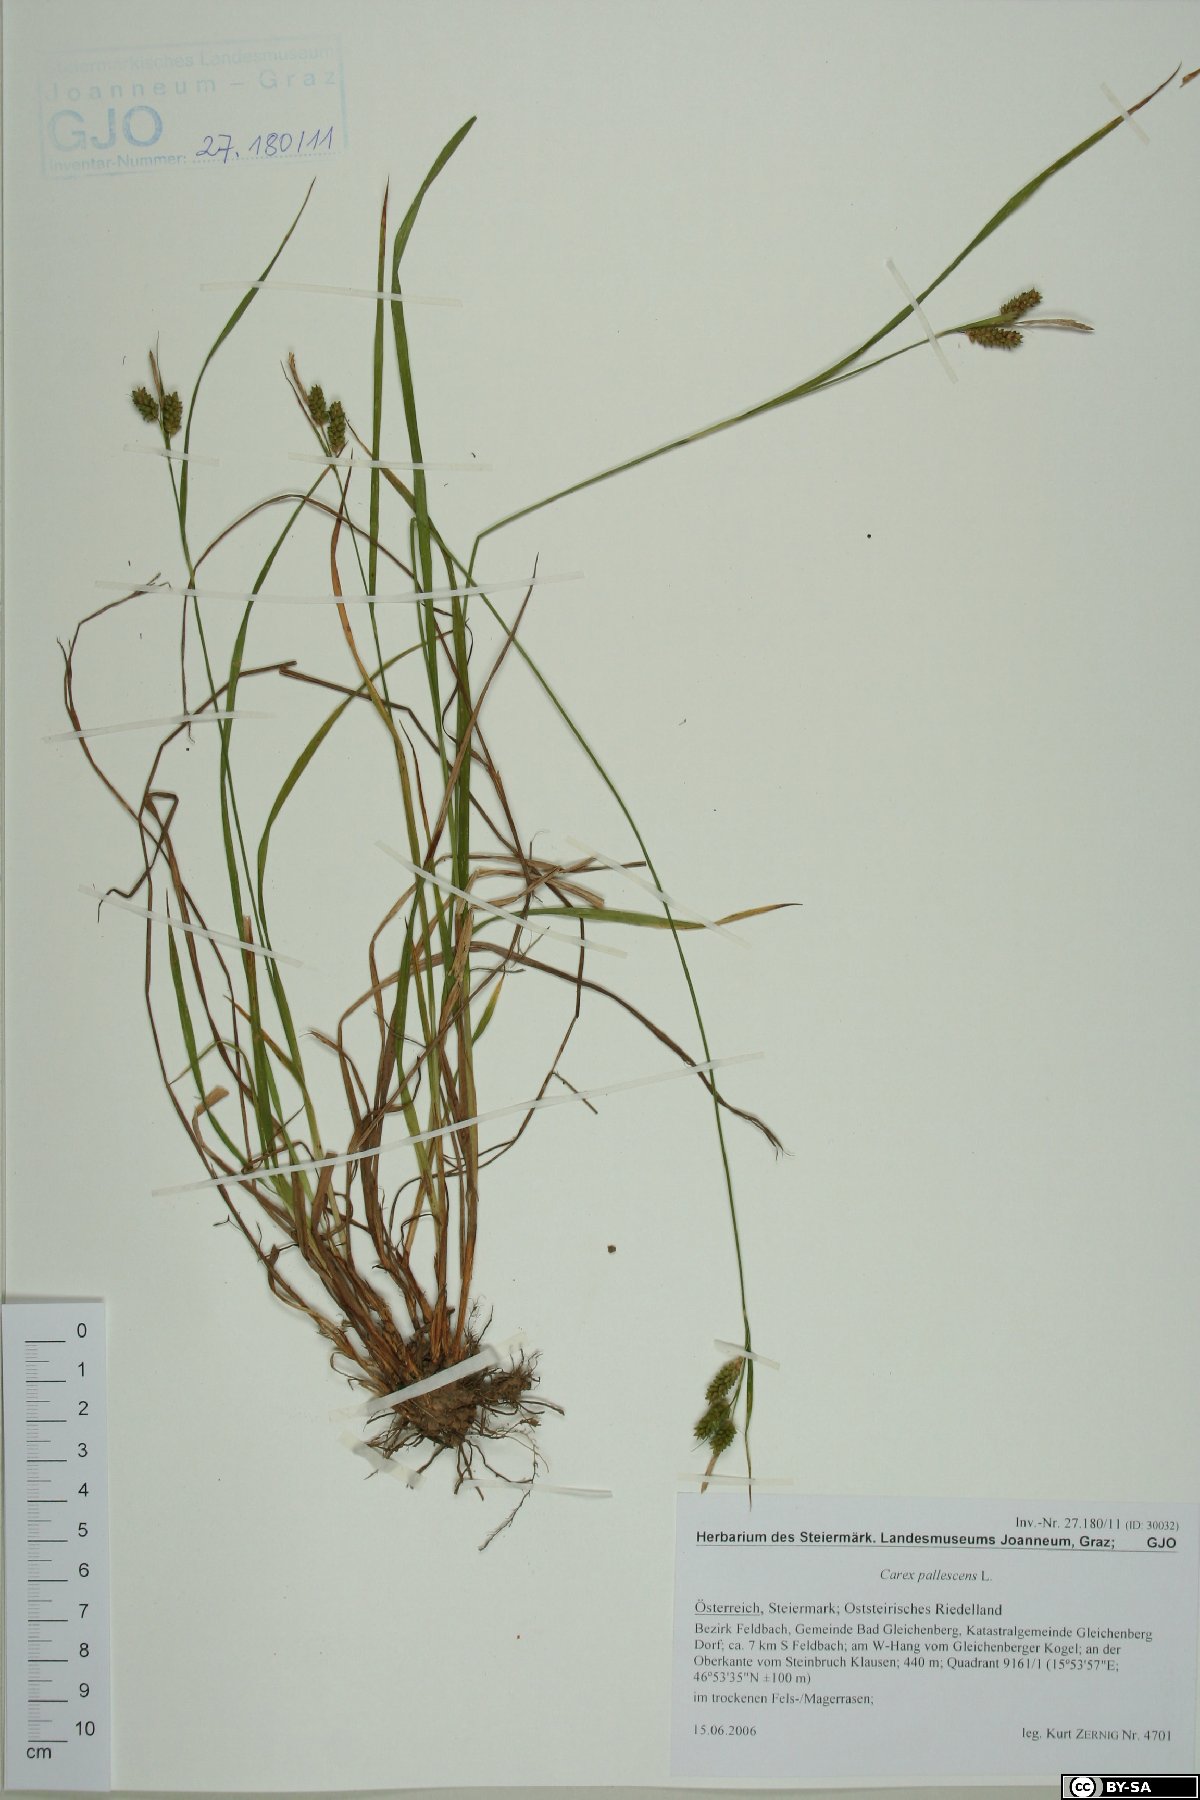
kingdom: Plantae
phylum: Tracheophyta
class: Liliopsida
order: Poales
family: Cyperaceae
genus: Carex
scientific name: Carex pallescens
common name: Pale sedge
